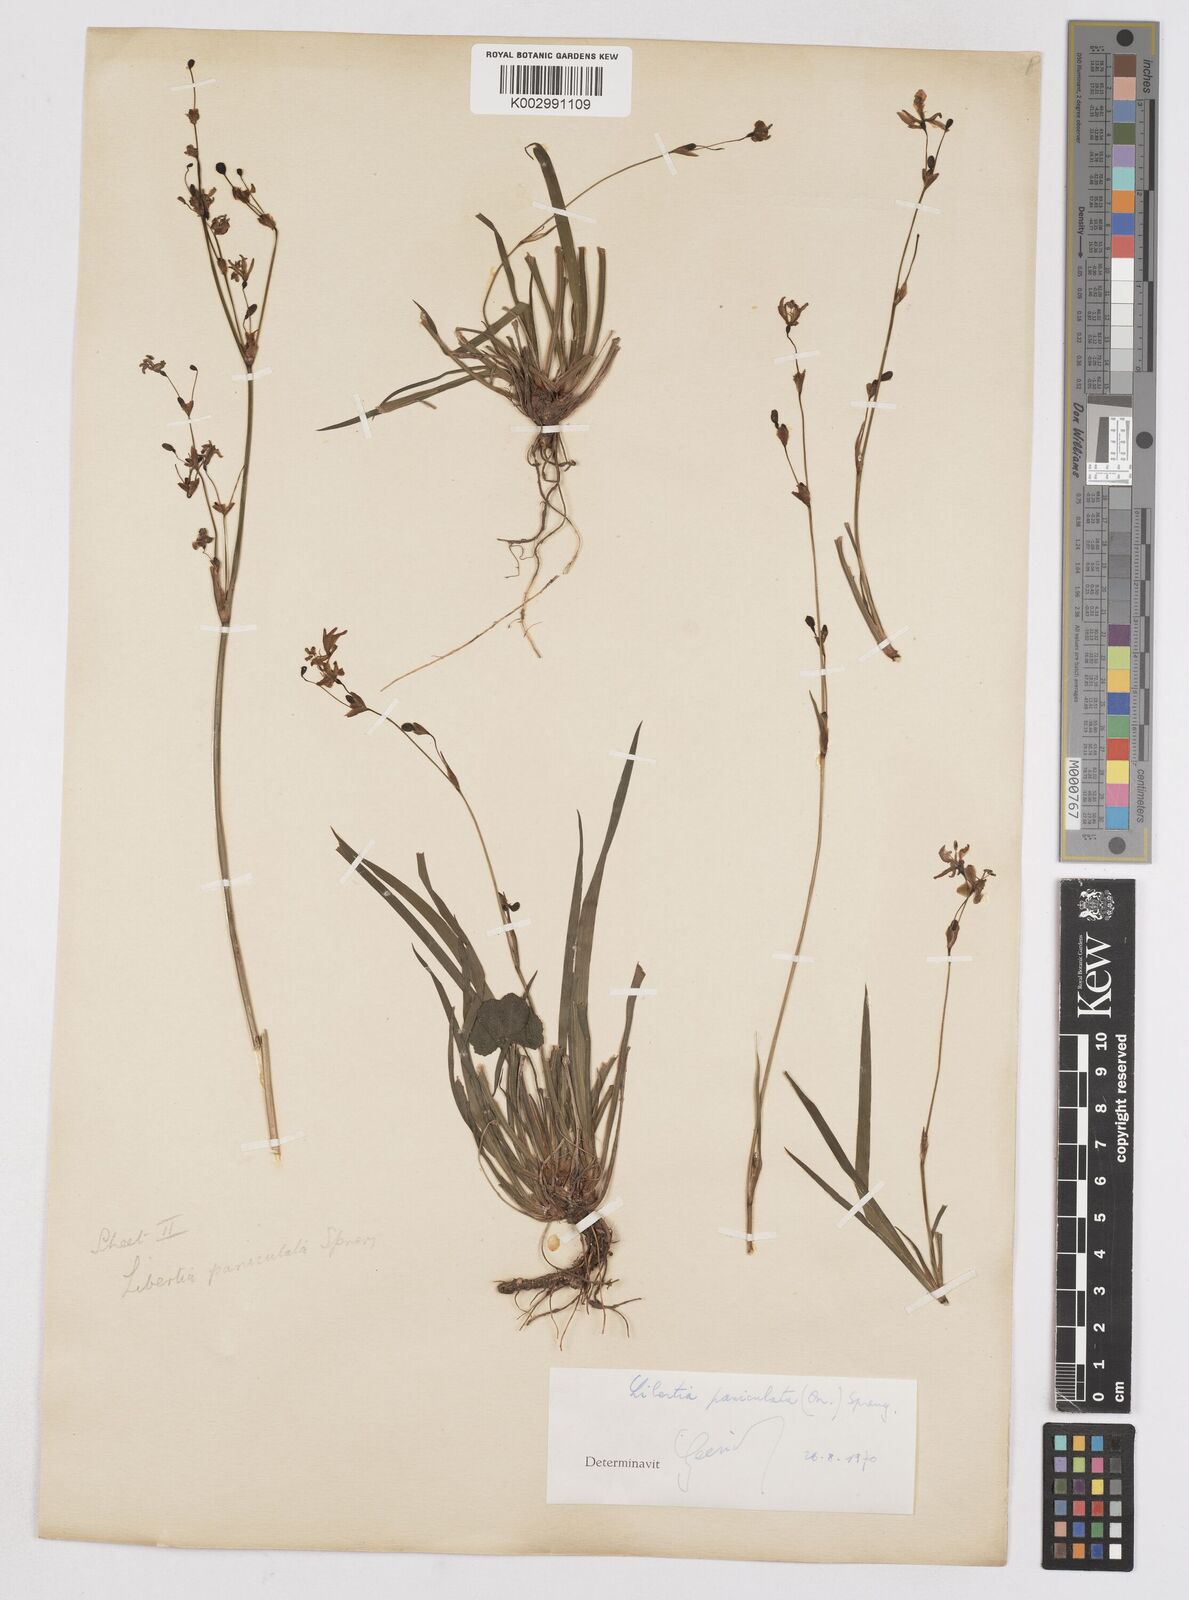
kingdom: Plantae
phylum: Tracheophyta
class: Liliopsida
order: Asparagales
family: Iridaceae
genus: Libertia
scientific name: Libertia paniculata
